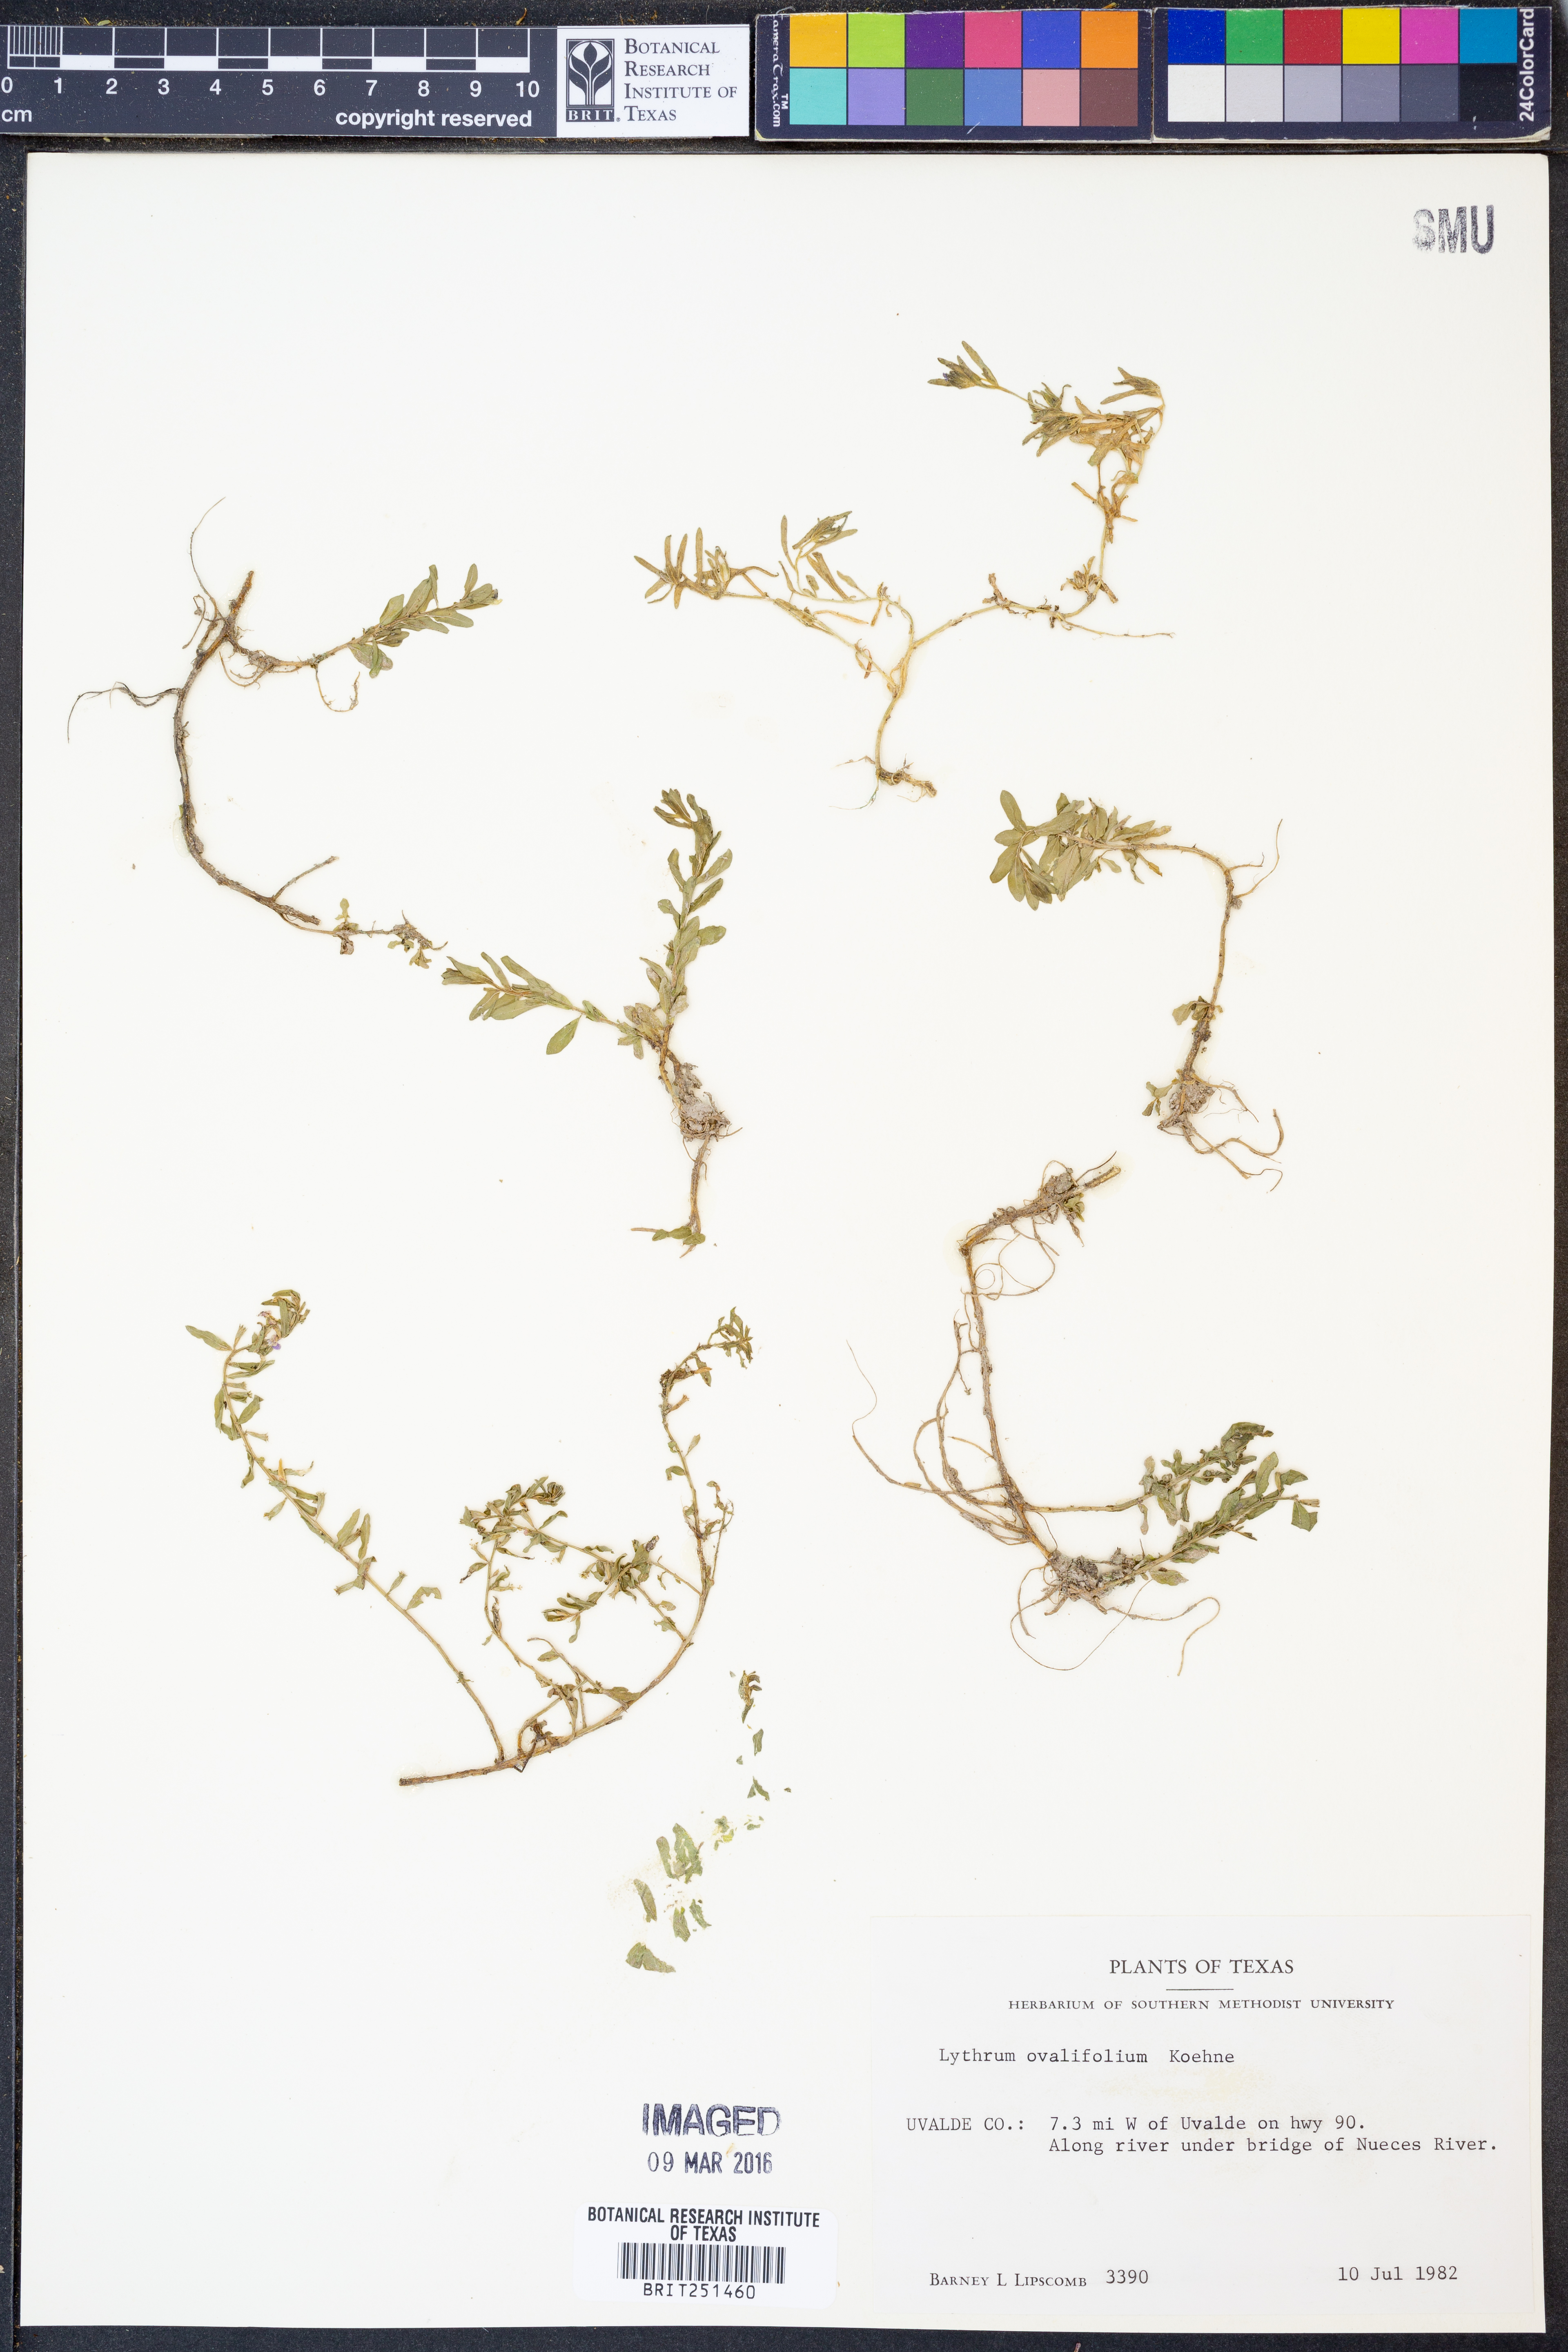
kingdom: Plantae
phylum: Tracheophyta
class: Magnoliopsida
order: Myrtales
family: Lythraceae
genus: Lythrum
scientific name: Lythrum ovalifolium
